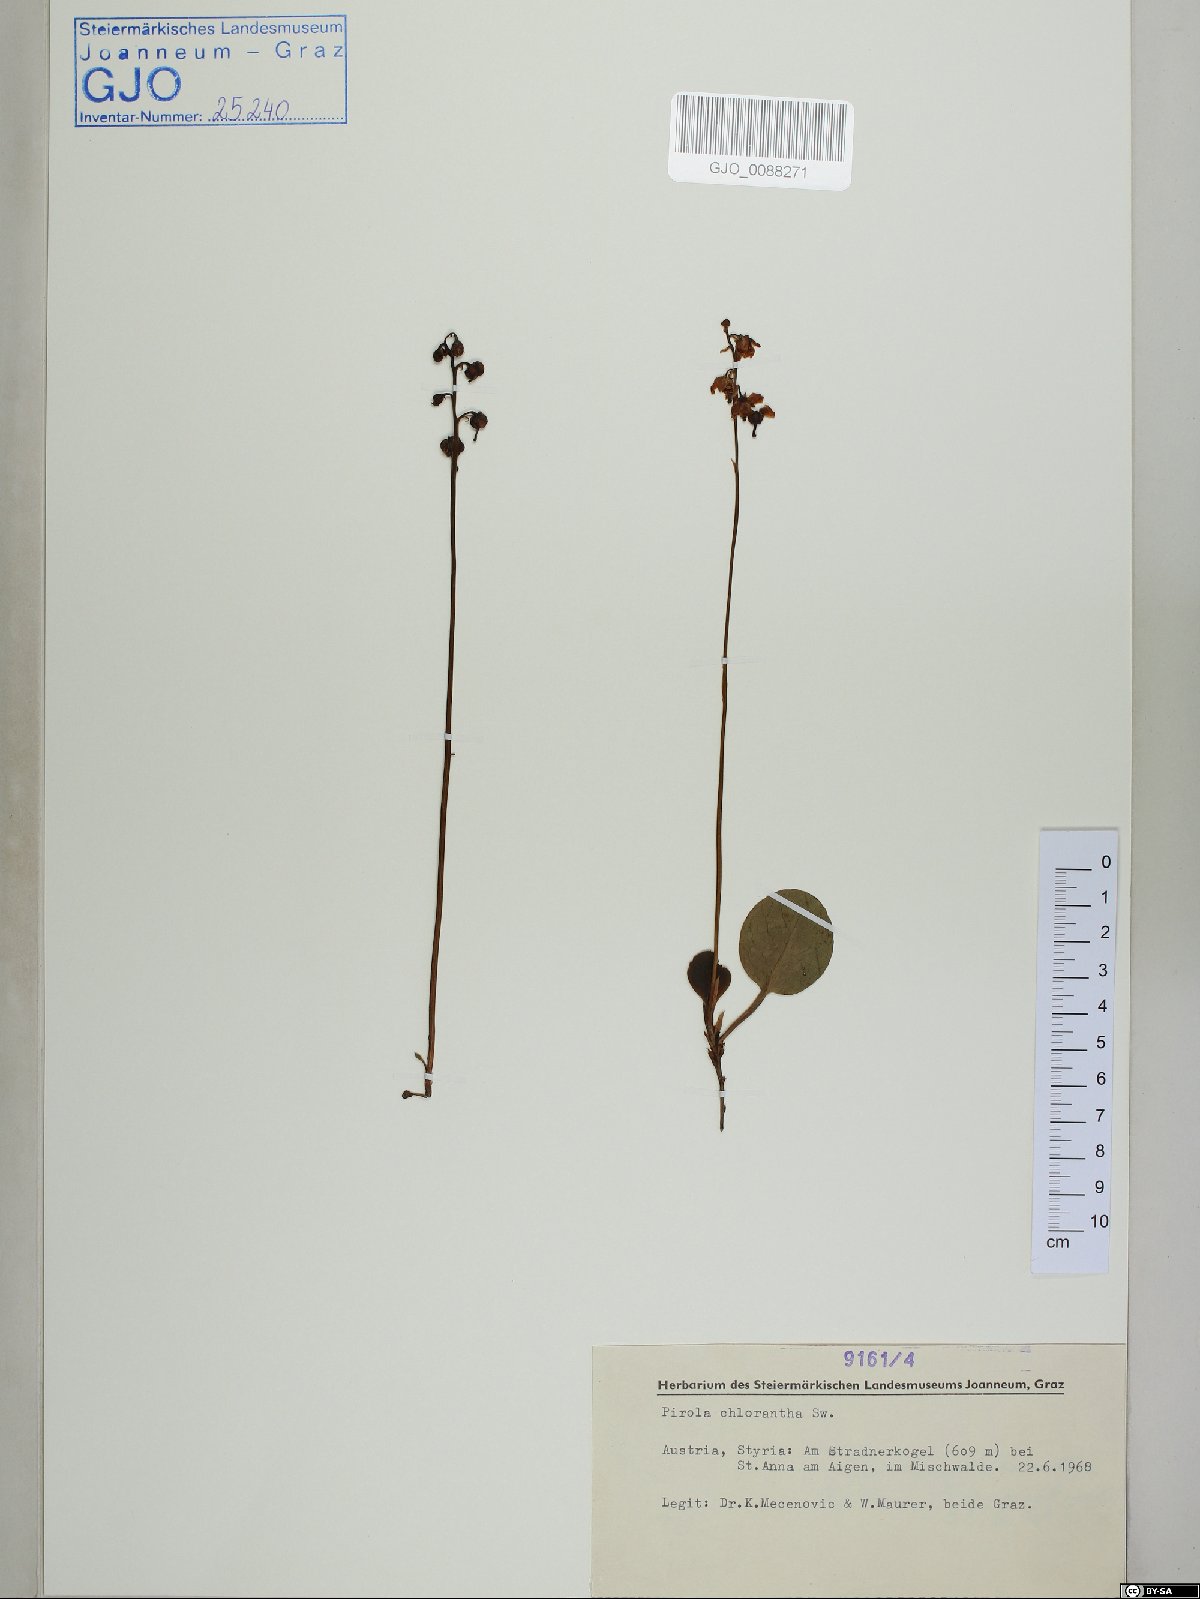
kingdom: Plantae
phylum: Tracheophyta
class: Magnoliopsida
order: Ericales
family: Ericaceae
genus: Pyrola
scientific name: Pyrola chlorantha
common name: Green wintergreen
